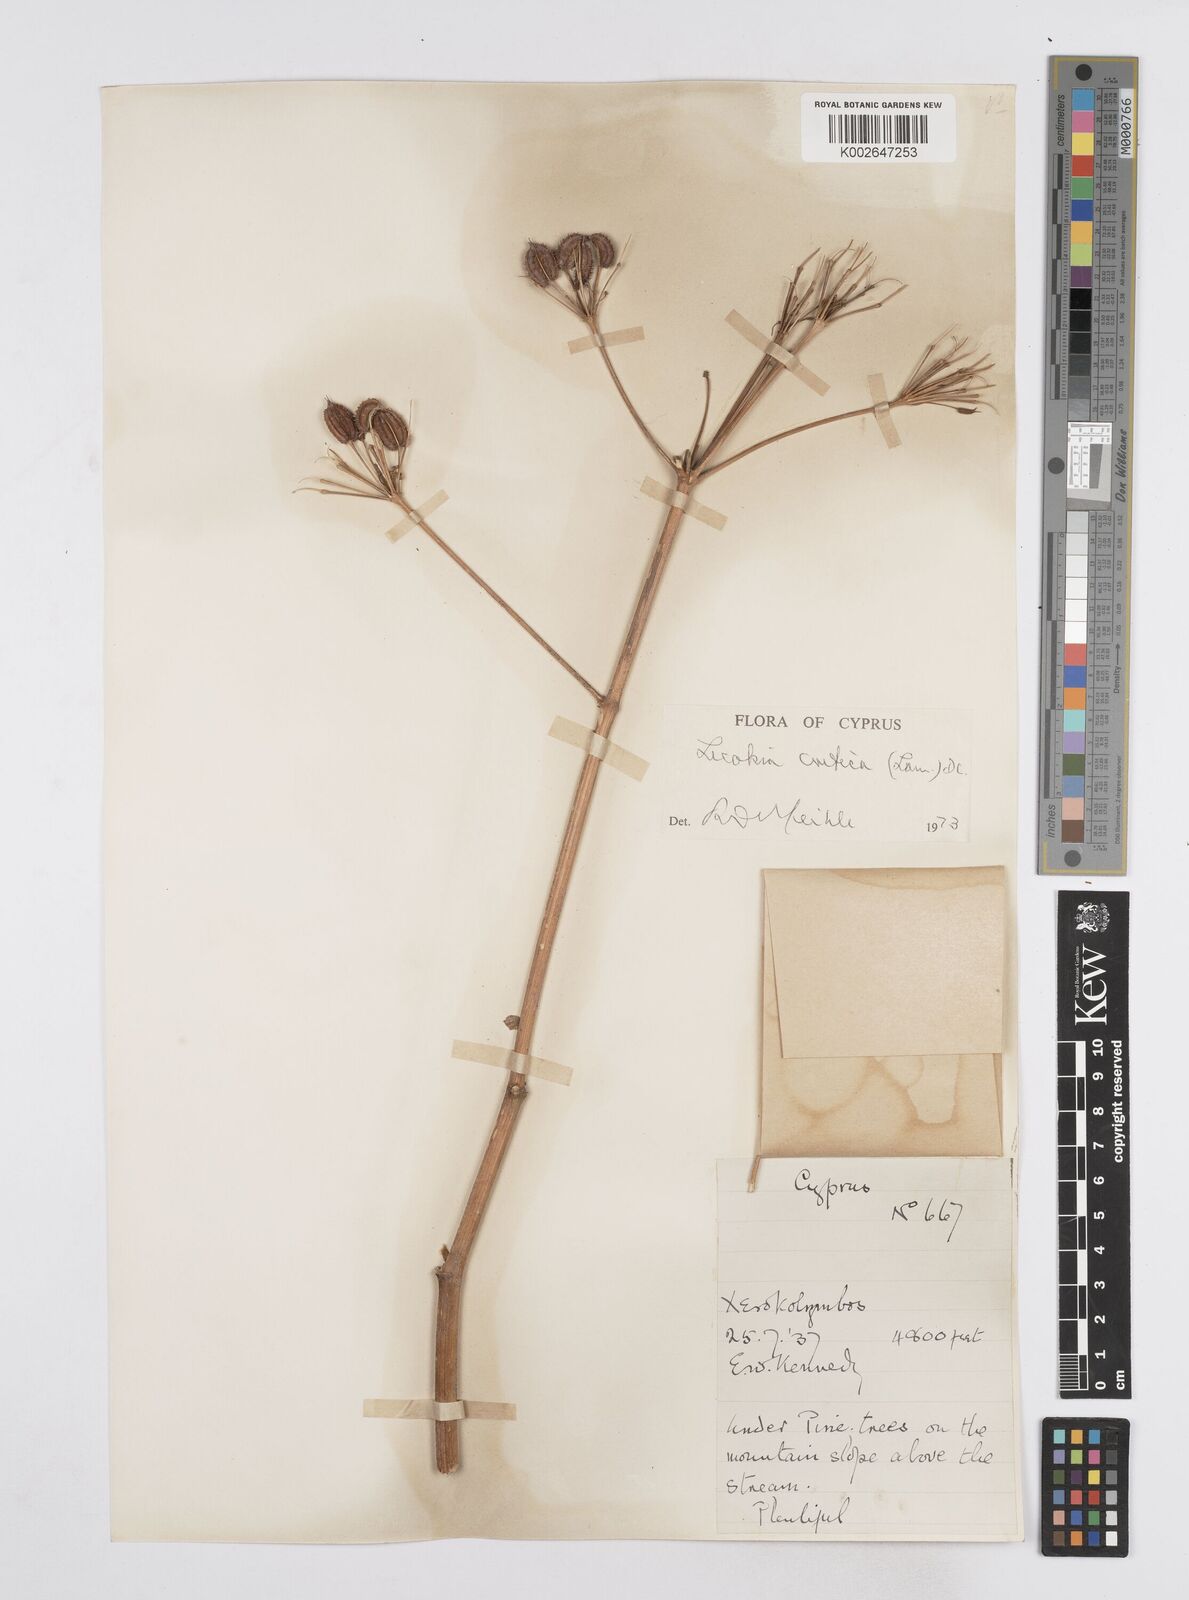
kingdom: Plantae
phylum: Tracheophyta
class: Magnoliopsida
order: Apiales
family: Apiaceae
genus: Lecokia
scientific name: Lecokia cretica
